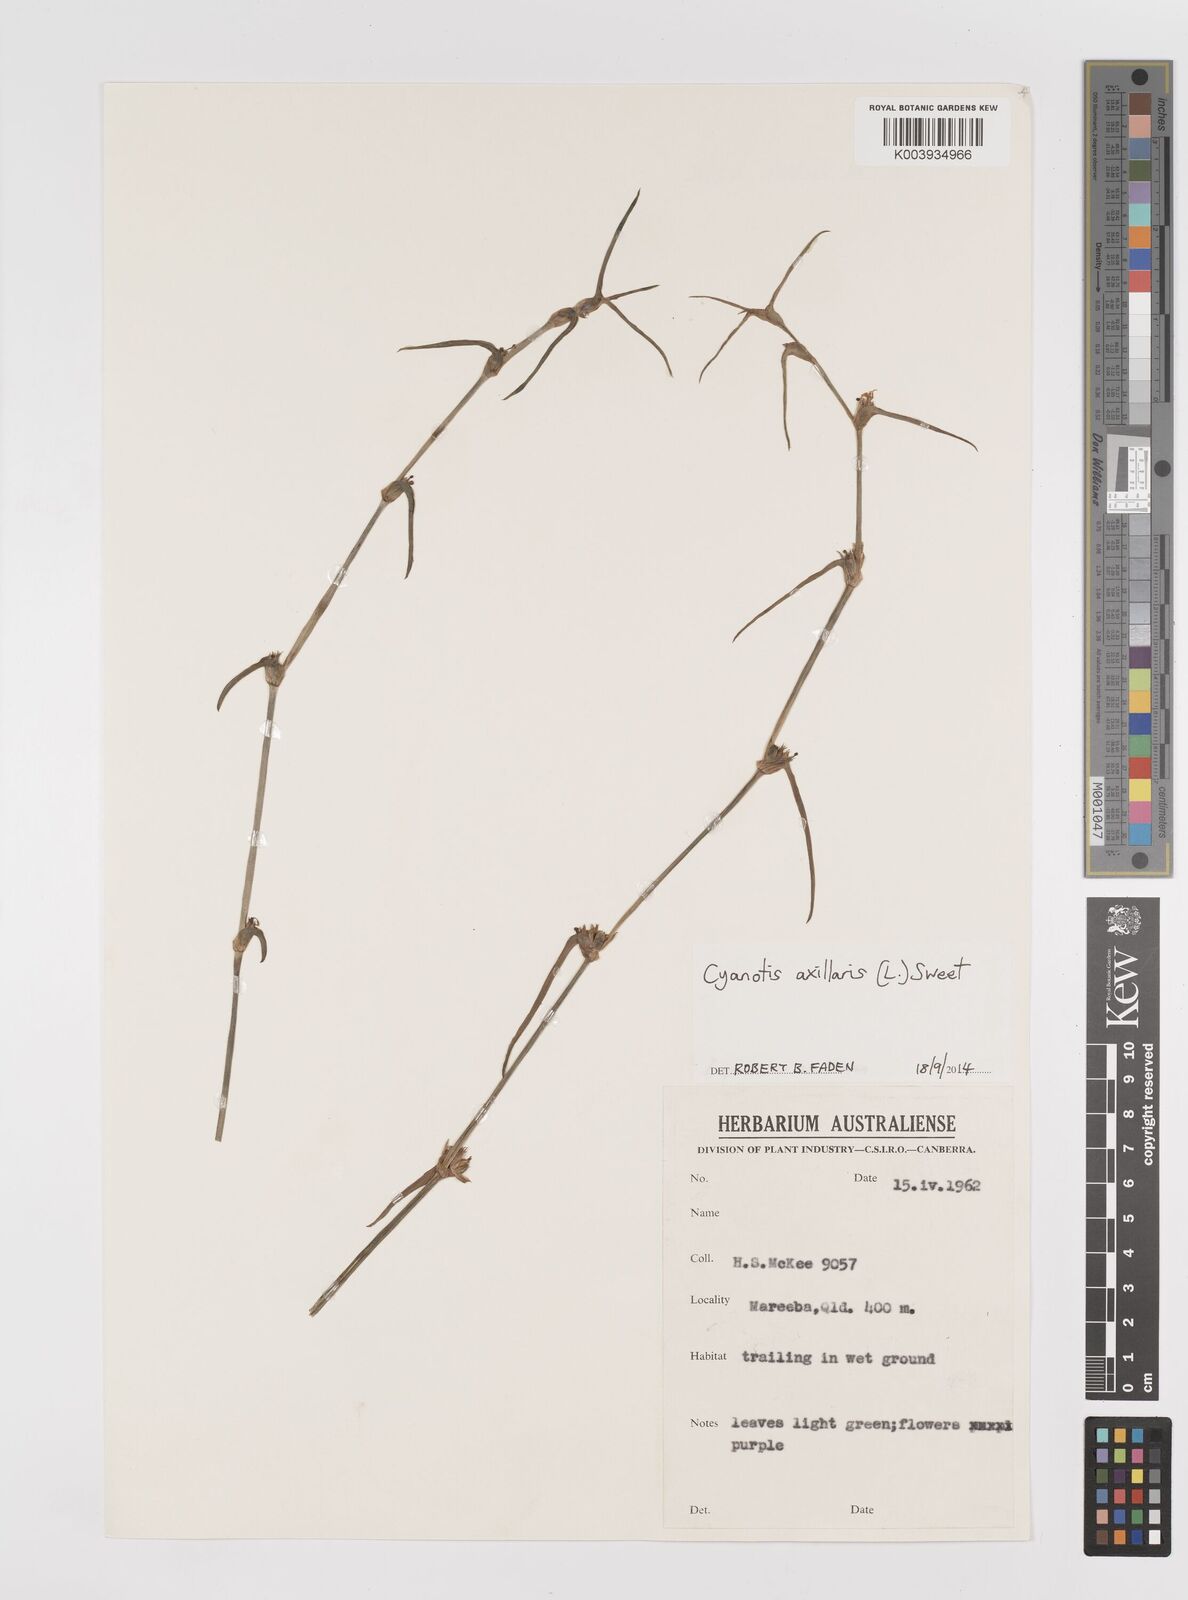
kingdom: Plantae
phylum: Tracheophyta
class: Liliopsida
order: Commelinales
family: Commelinaceae
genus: Cyanotis
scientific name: Cyanotis axillaris
